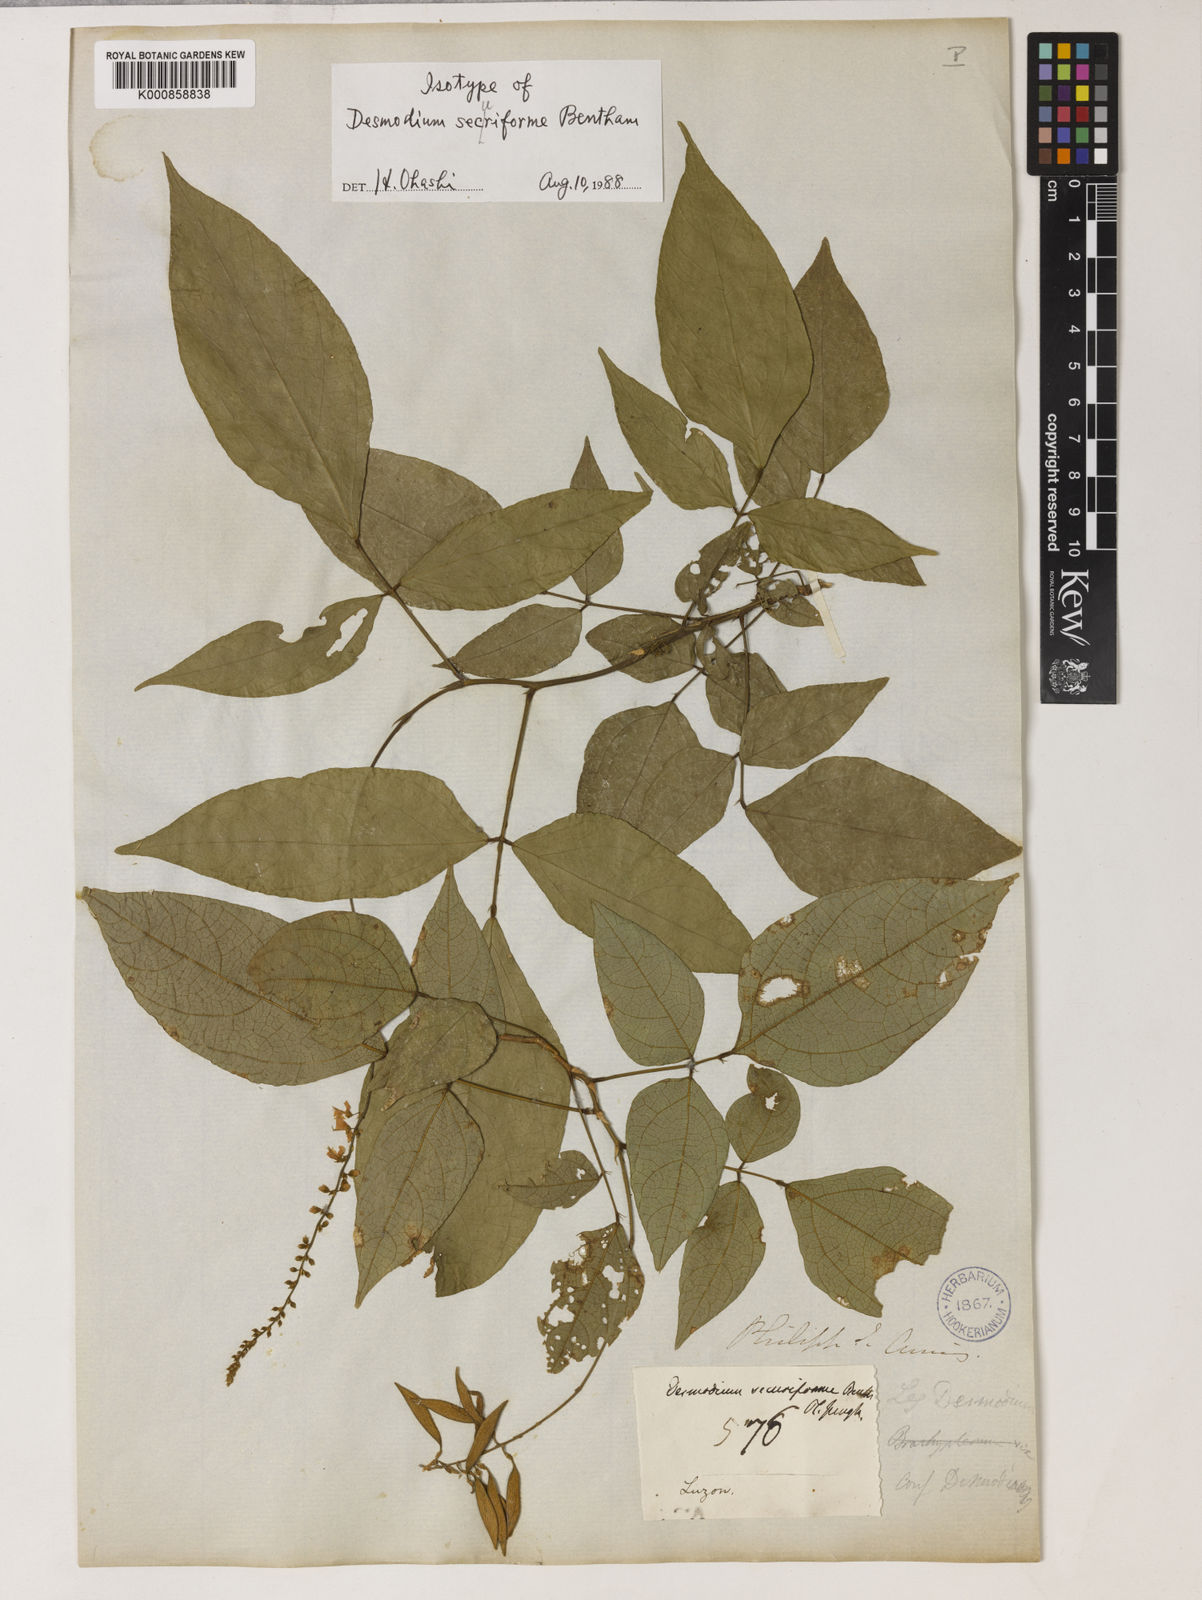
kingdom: Plantae
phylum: Tracheophyta
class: Magnoliopsida
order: Fabales
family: Fabaceae
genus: Monarthrocarpus
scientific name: Monarthrocarpus securiformis
